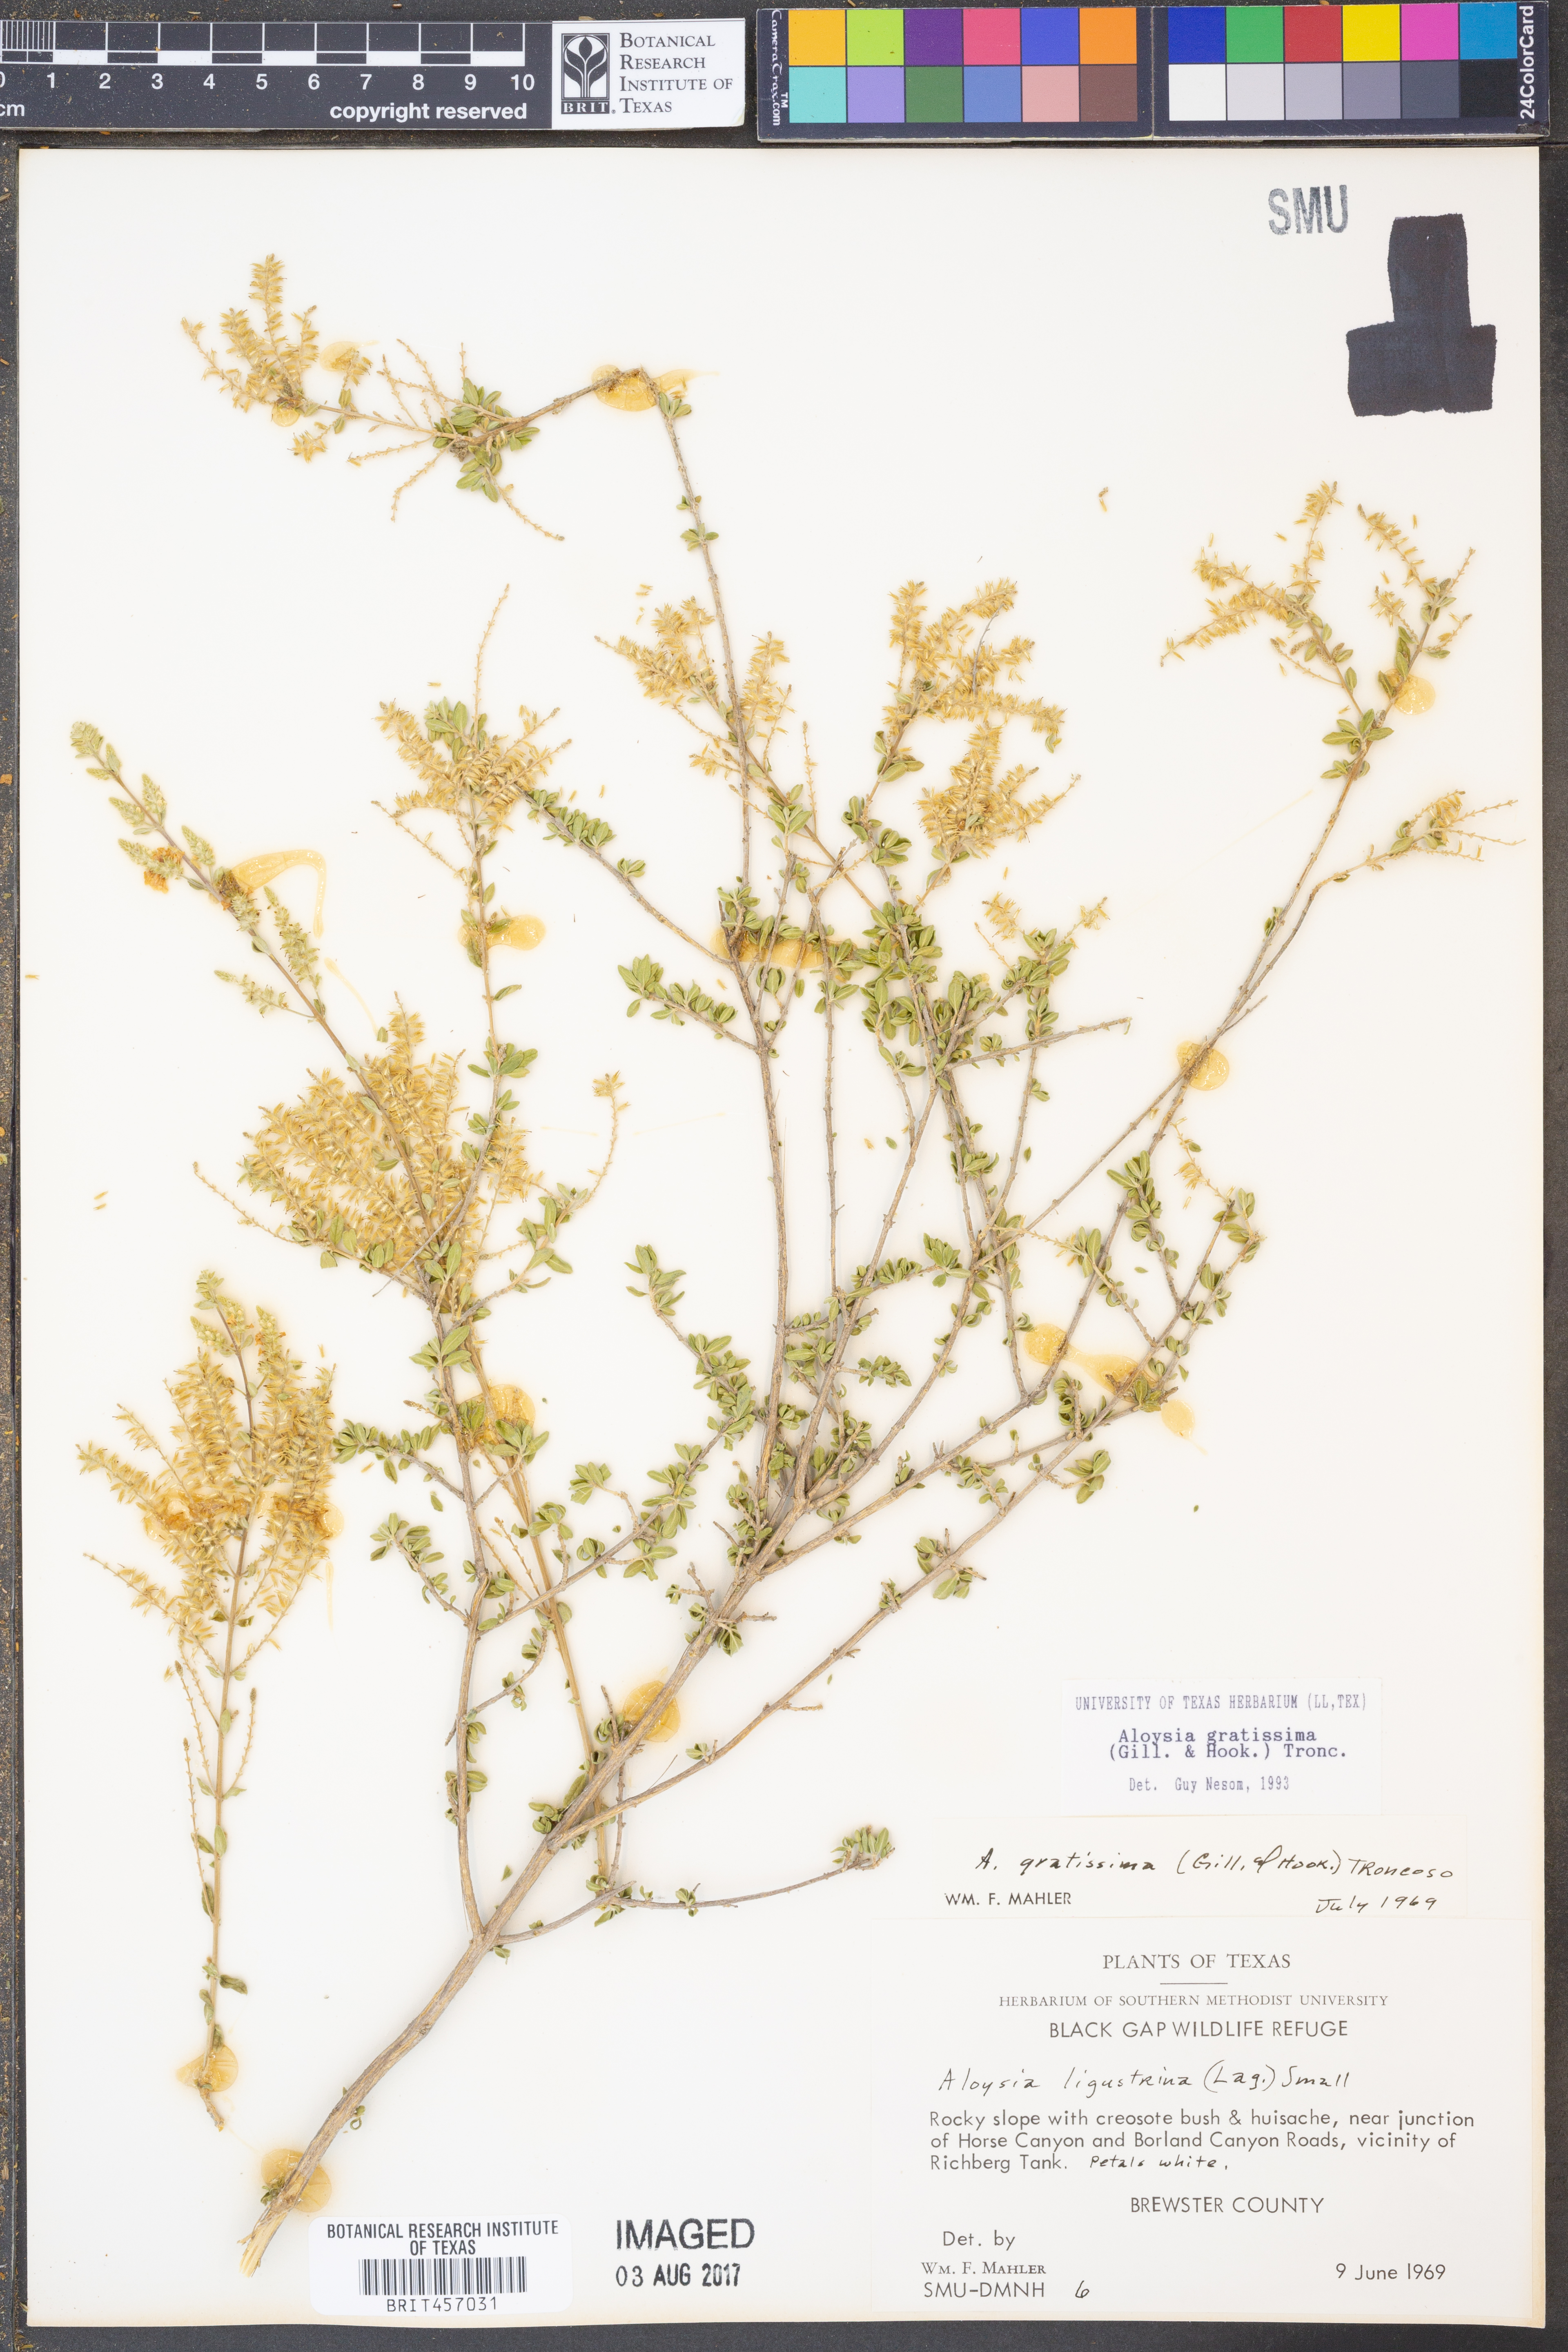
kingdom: Plantae
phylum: Tracheophyta
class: Magnoliopsida
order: Lamiales
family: Verbenaceae
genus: Aloysia
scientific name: Aloysia gratissima
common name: Common bee-brush
